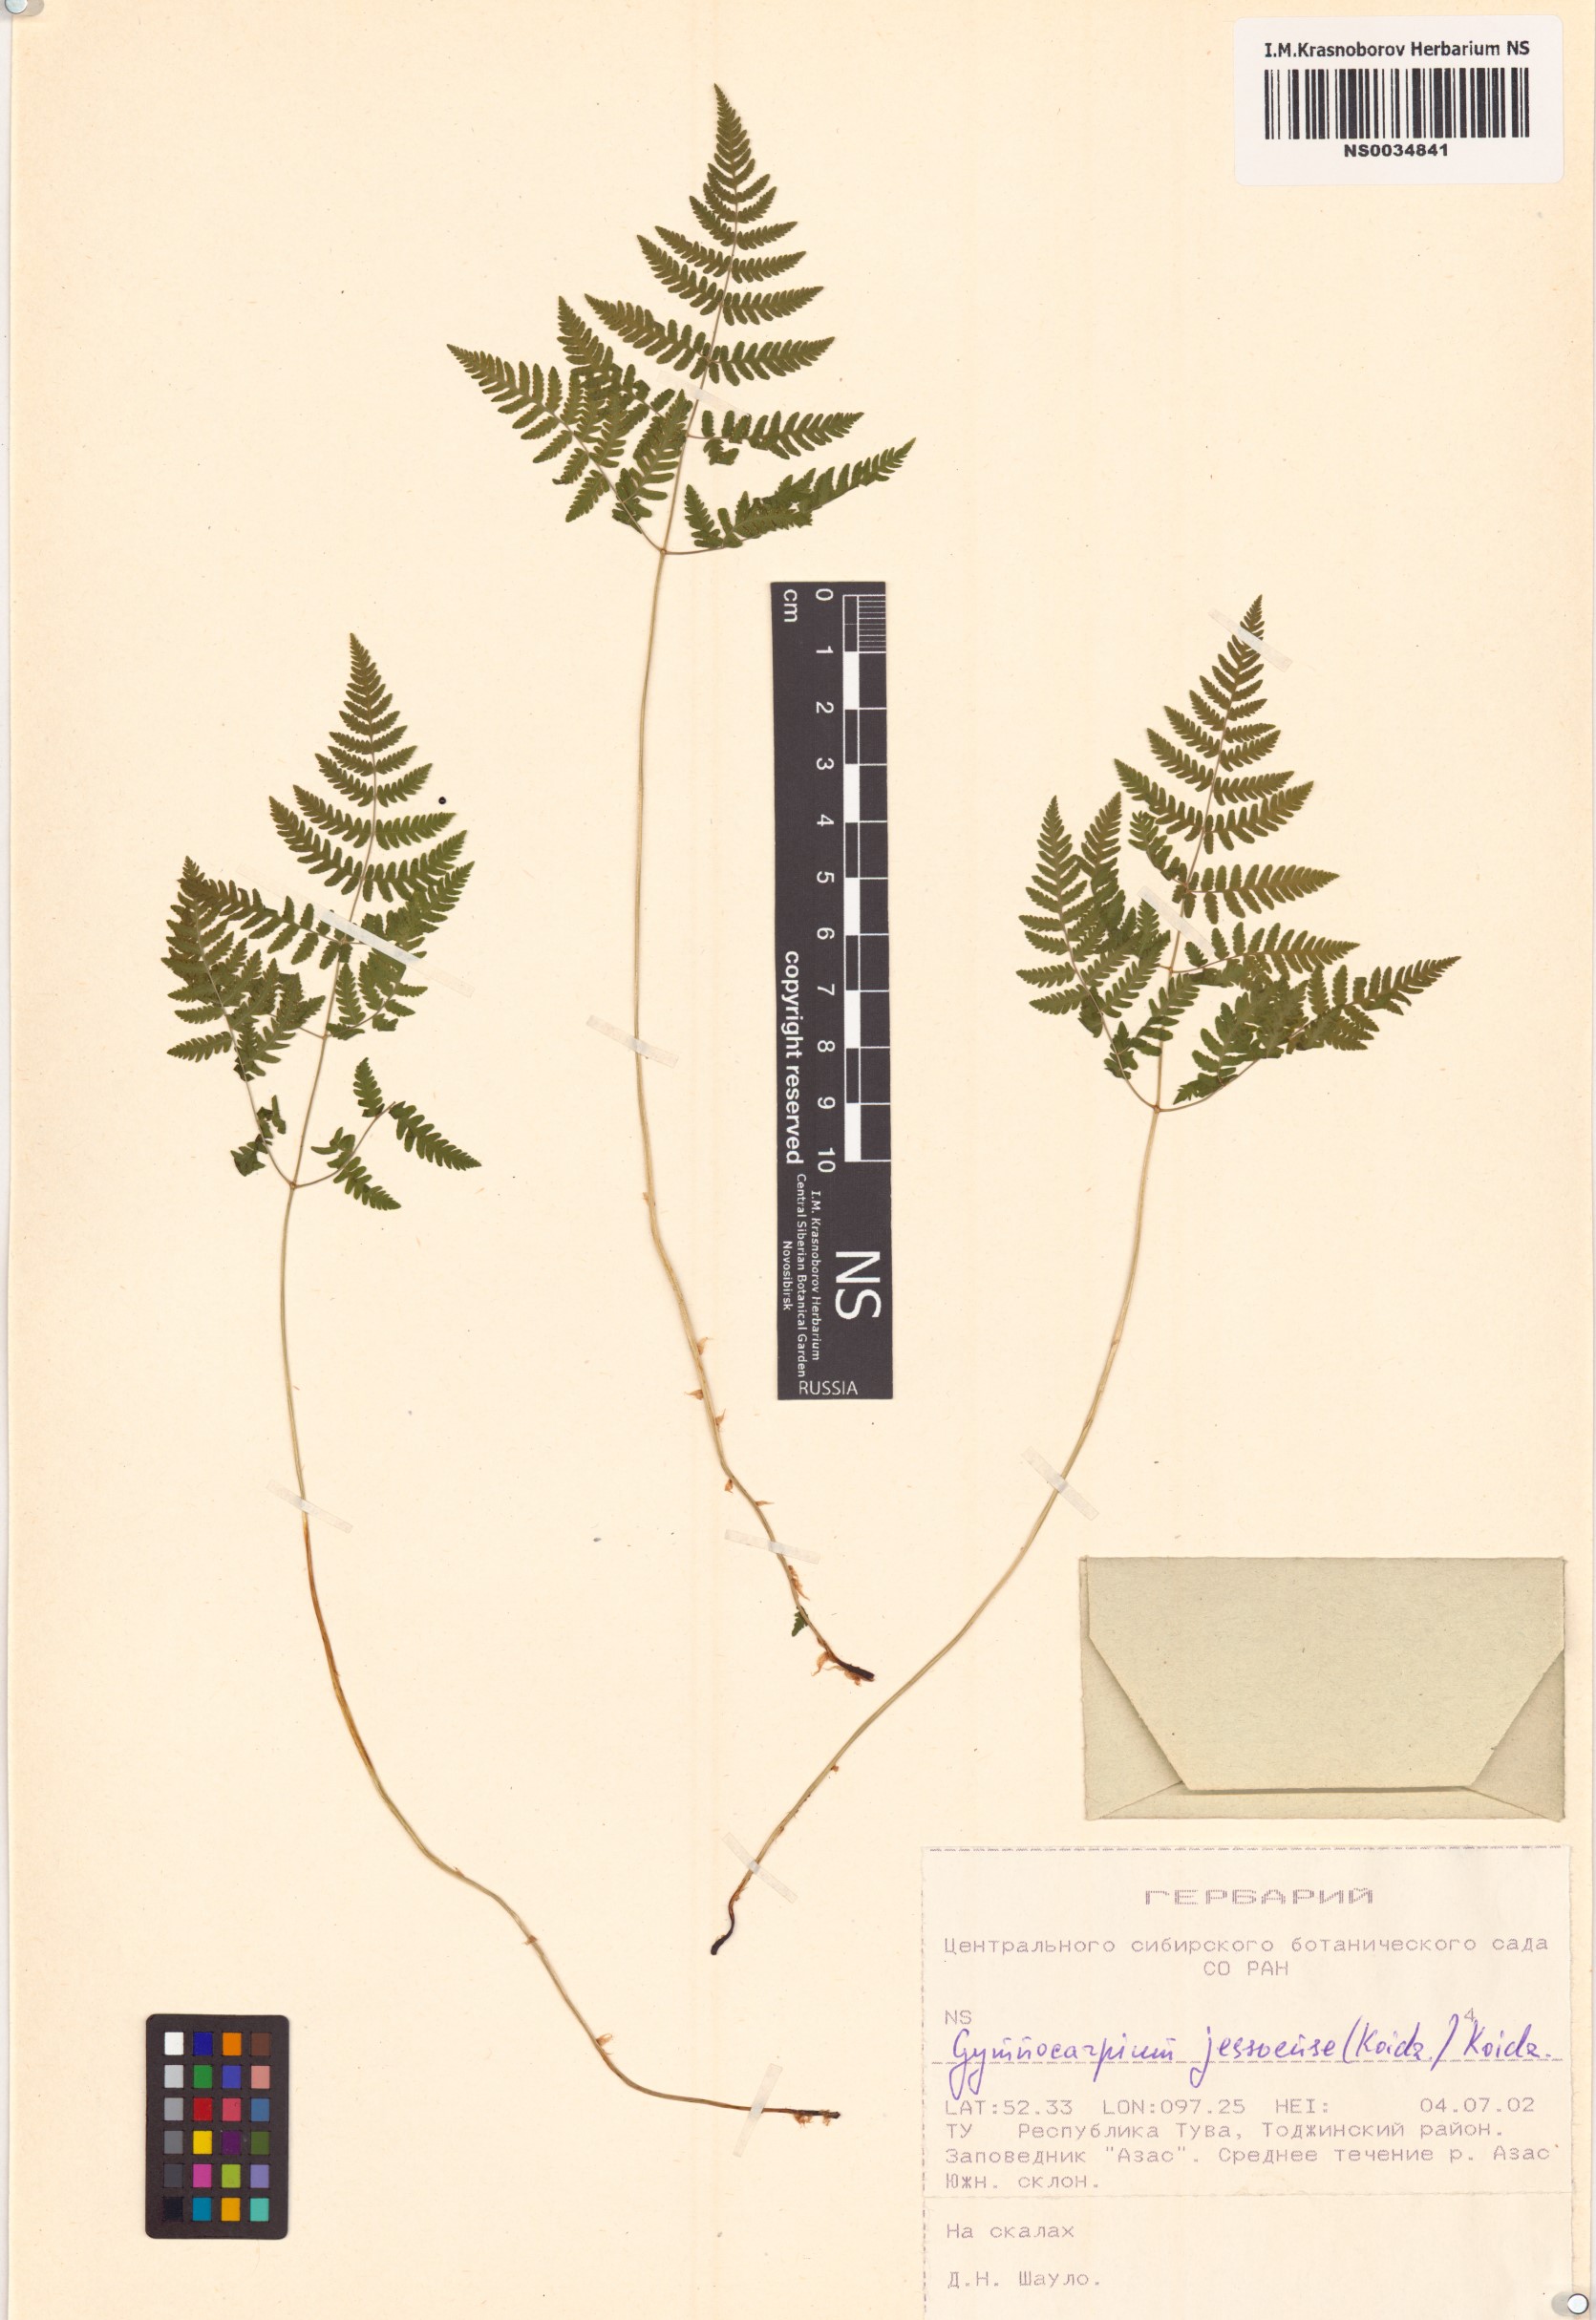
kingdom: Plantae
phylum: Tracheophyta
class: Polypodiopsida
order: Polypodiales
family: Cystopteridaceae
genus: Gymnocarpium
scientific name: Gymnocarpium jessoense
